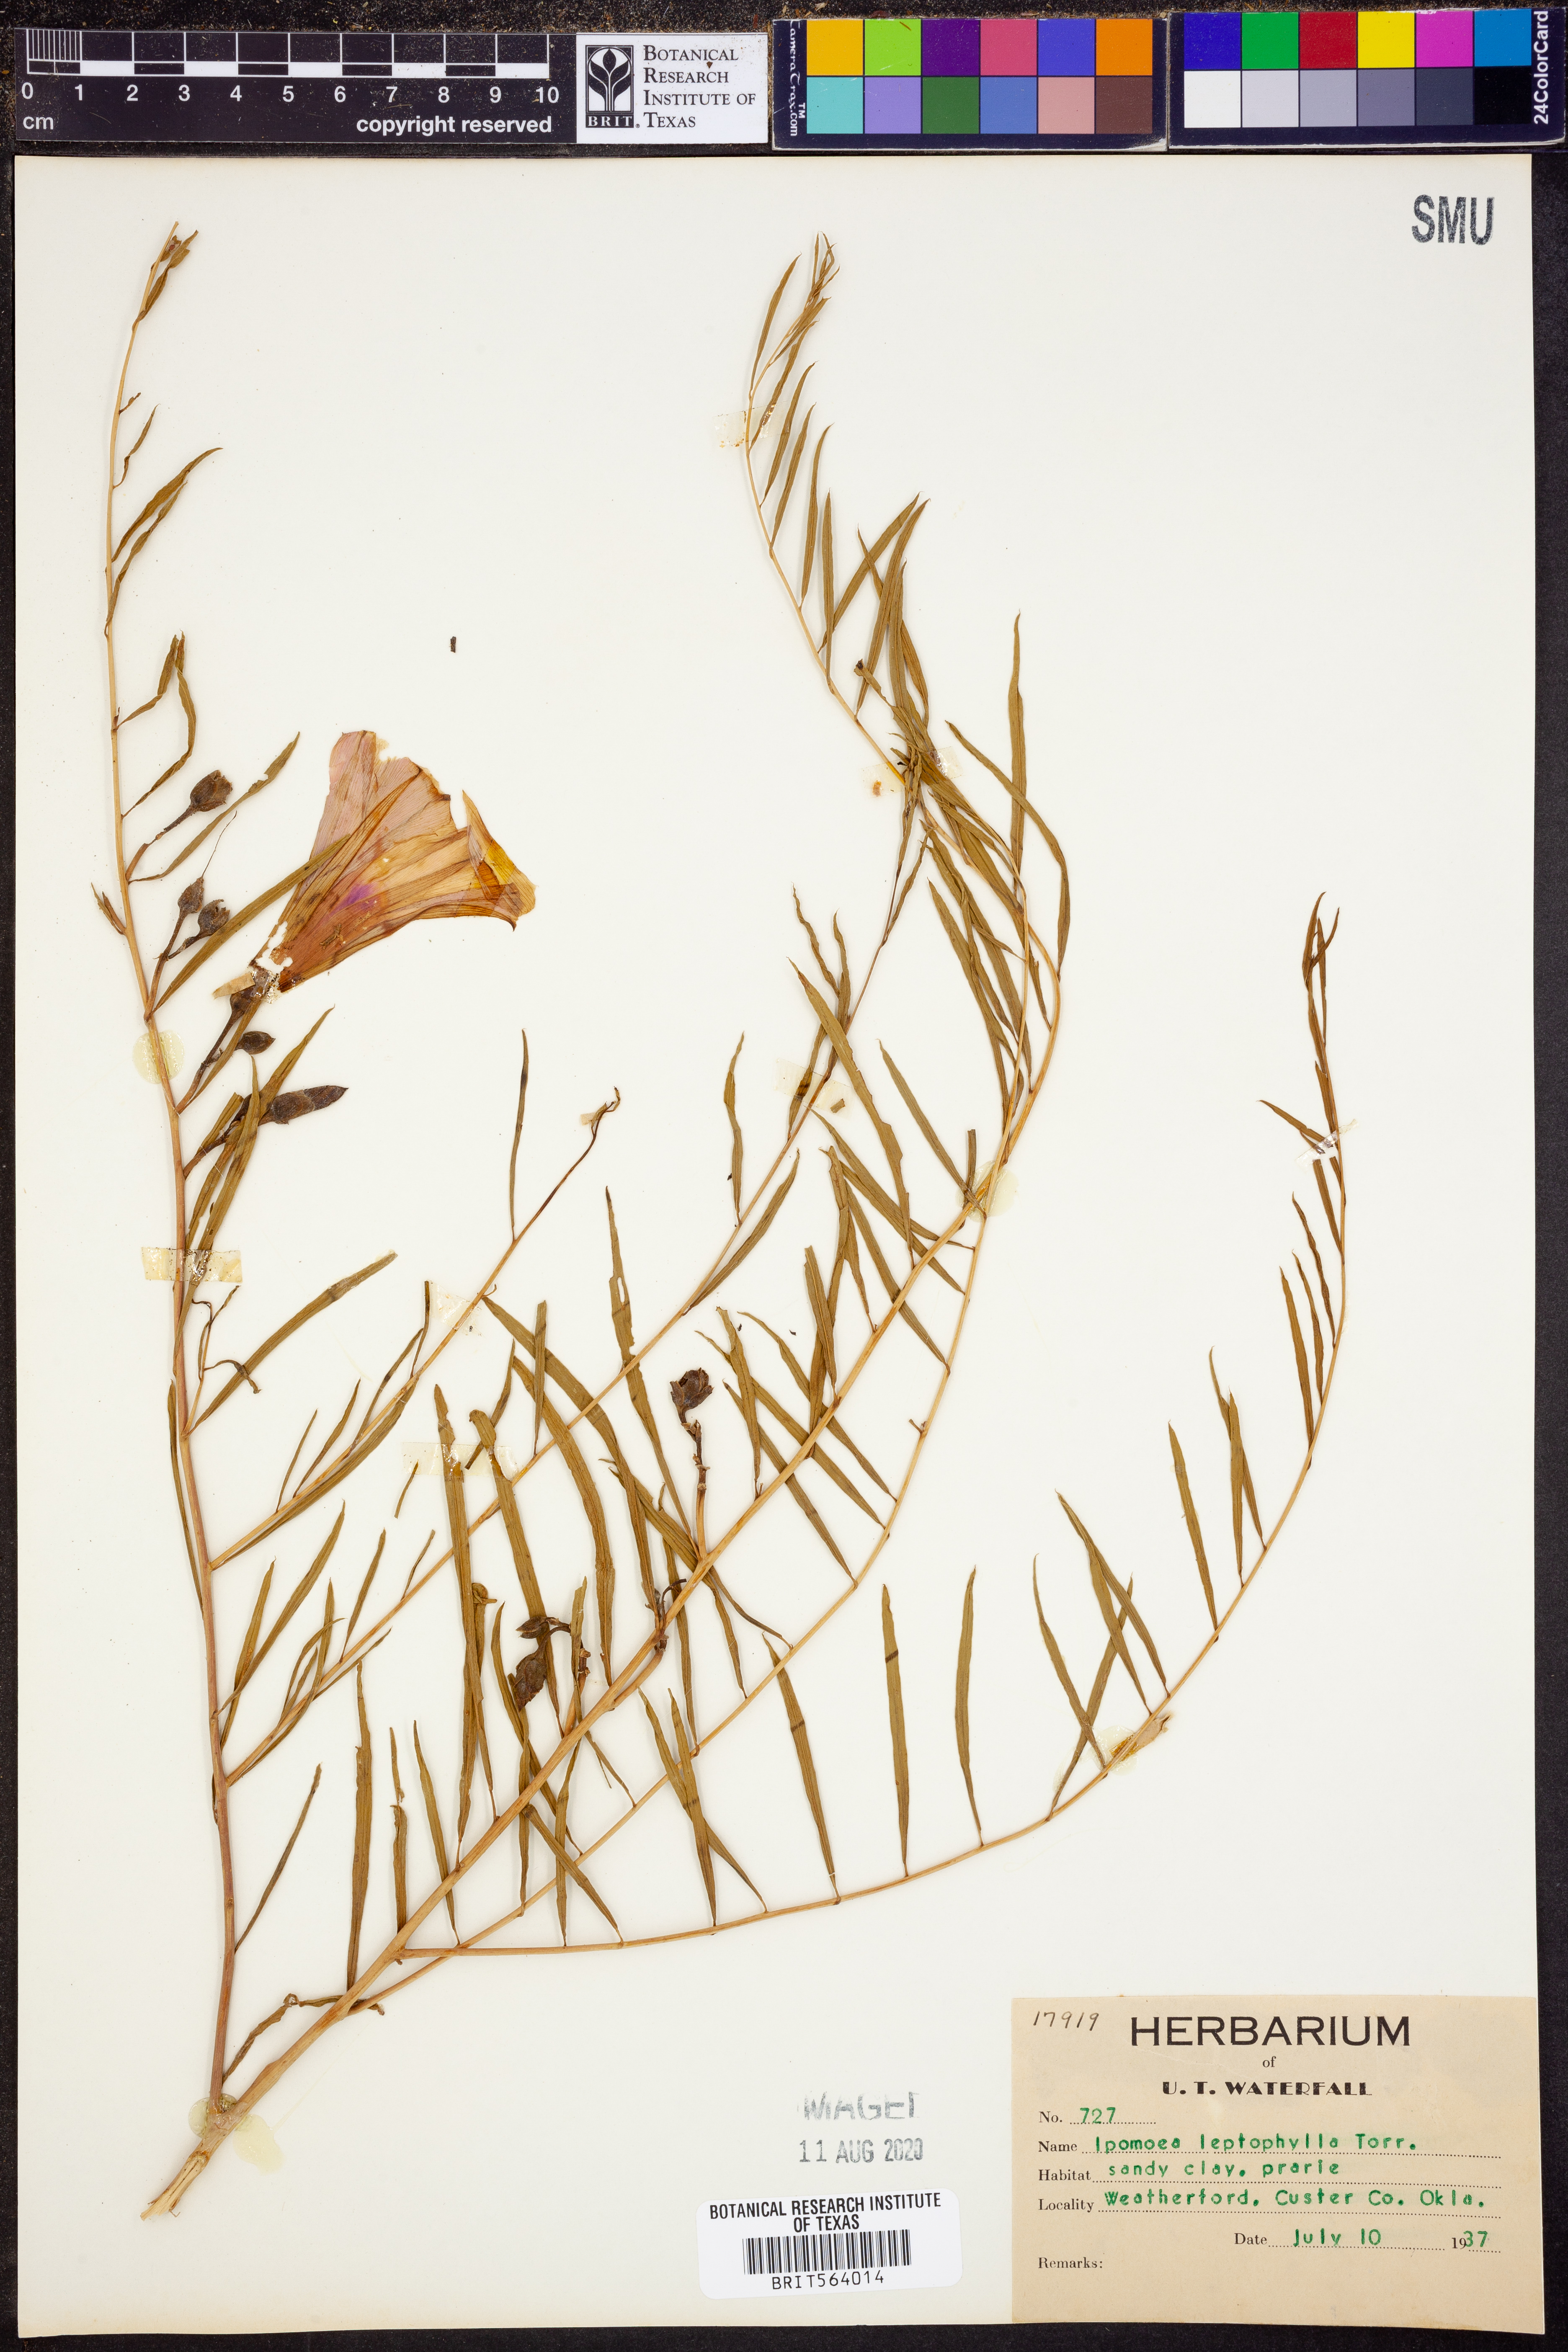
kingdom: Plantae
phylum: Tracheophyta
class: Magnoliopsida
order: Solanales
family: Convolvulaceae
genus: Ipomoea
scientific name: Ipomoea leptophylla
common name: Bush moonflower
